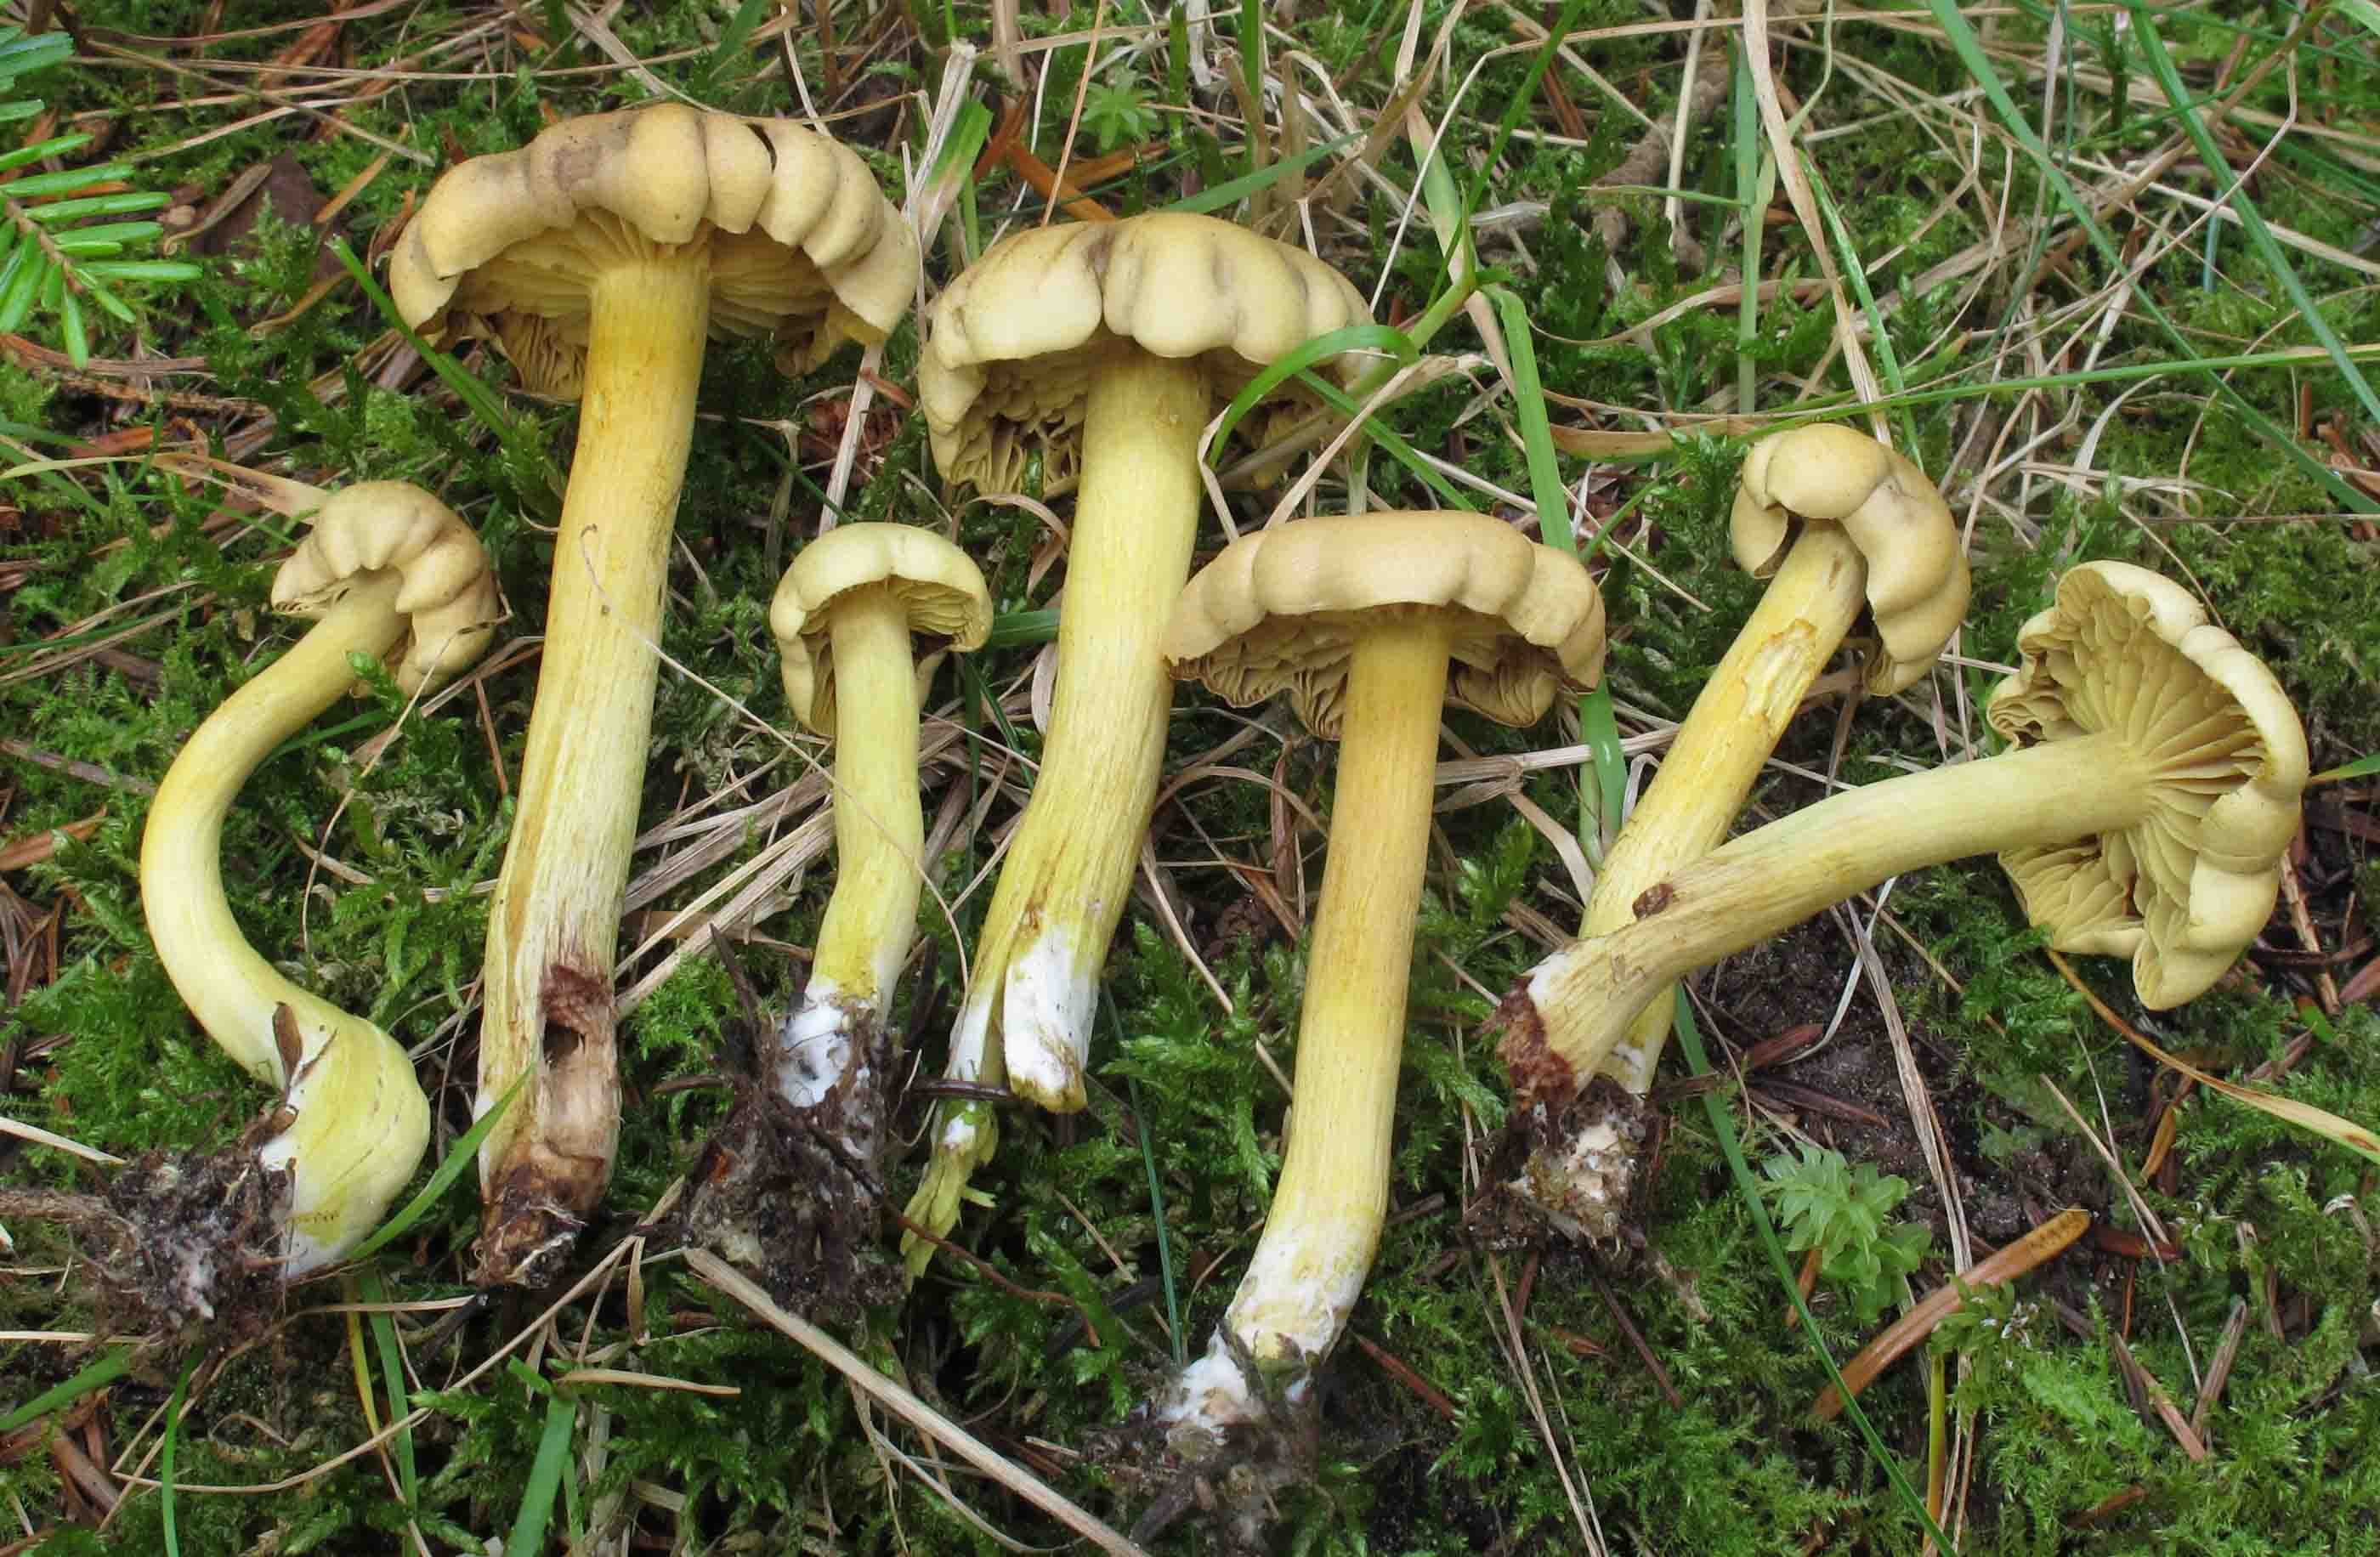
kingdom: Fungi
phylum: Basidiomycota
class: Agaricomycetes
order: Agaricales
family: Tricholomataceae
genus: Tricholoma
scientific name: Tricholoma sulphureum
